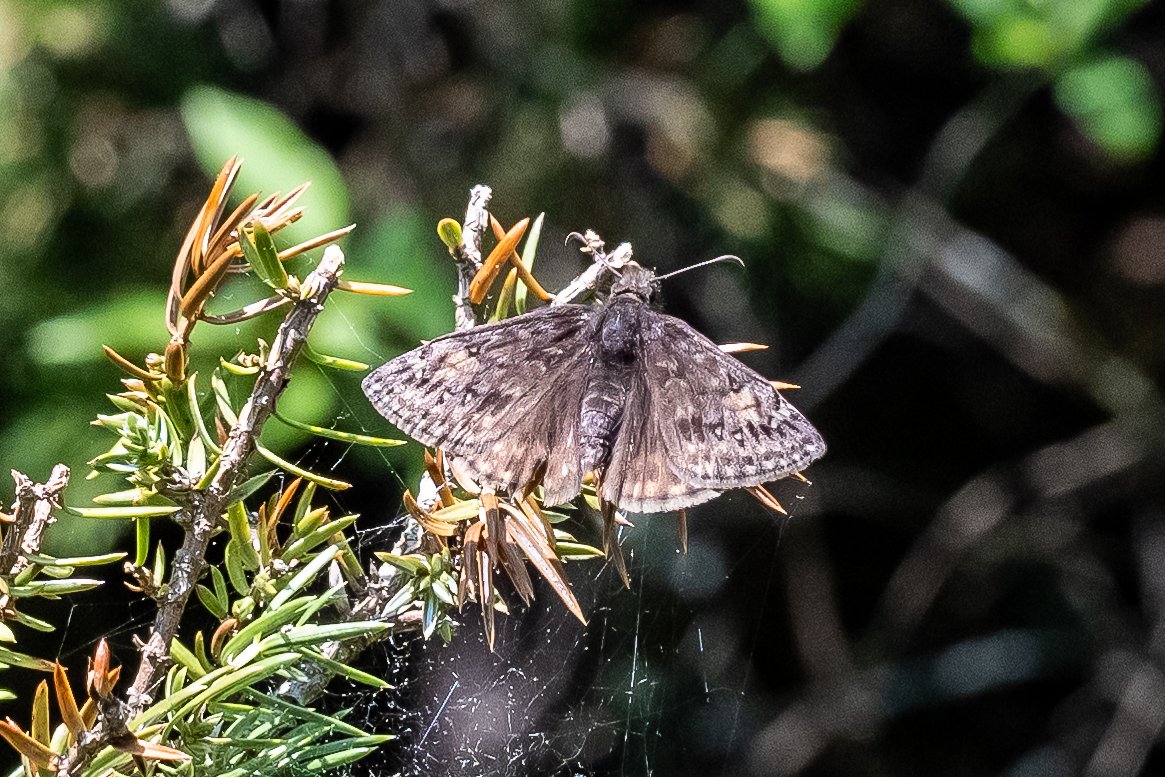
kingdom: Animalia
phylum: Arthropoda
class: Insecta
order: Lepidoptera
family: Hesperiidae
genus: Erynnis
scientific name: Erynnis
